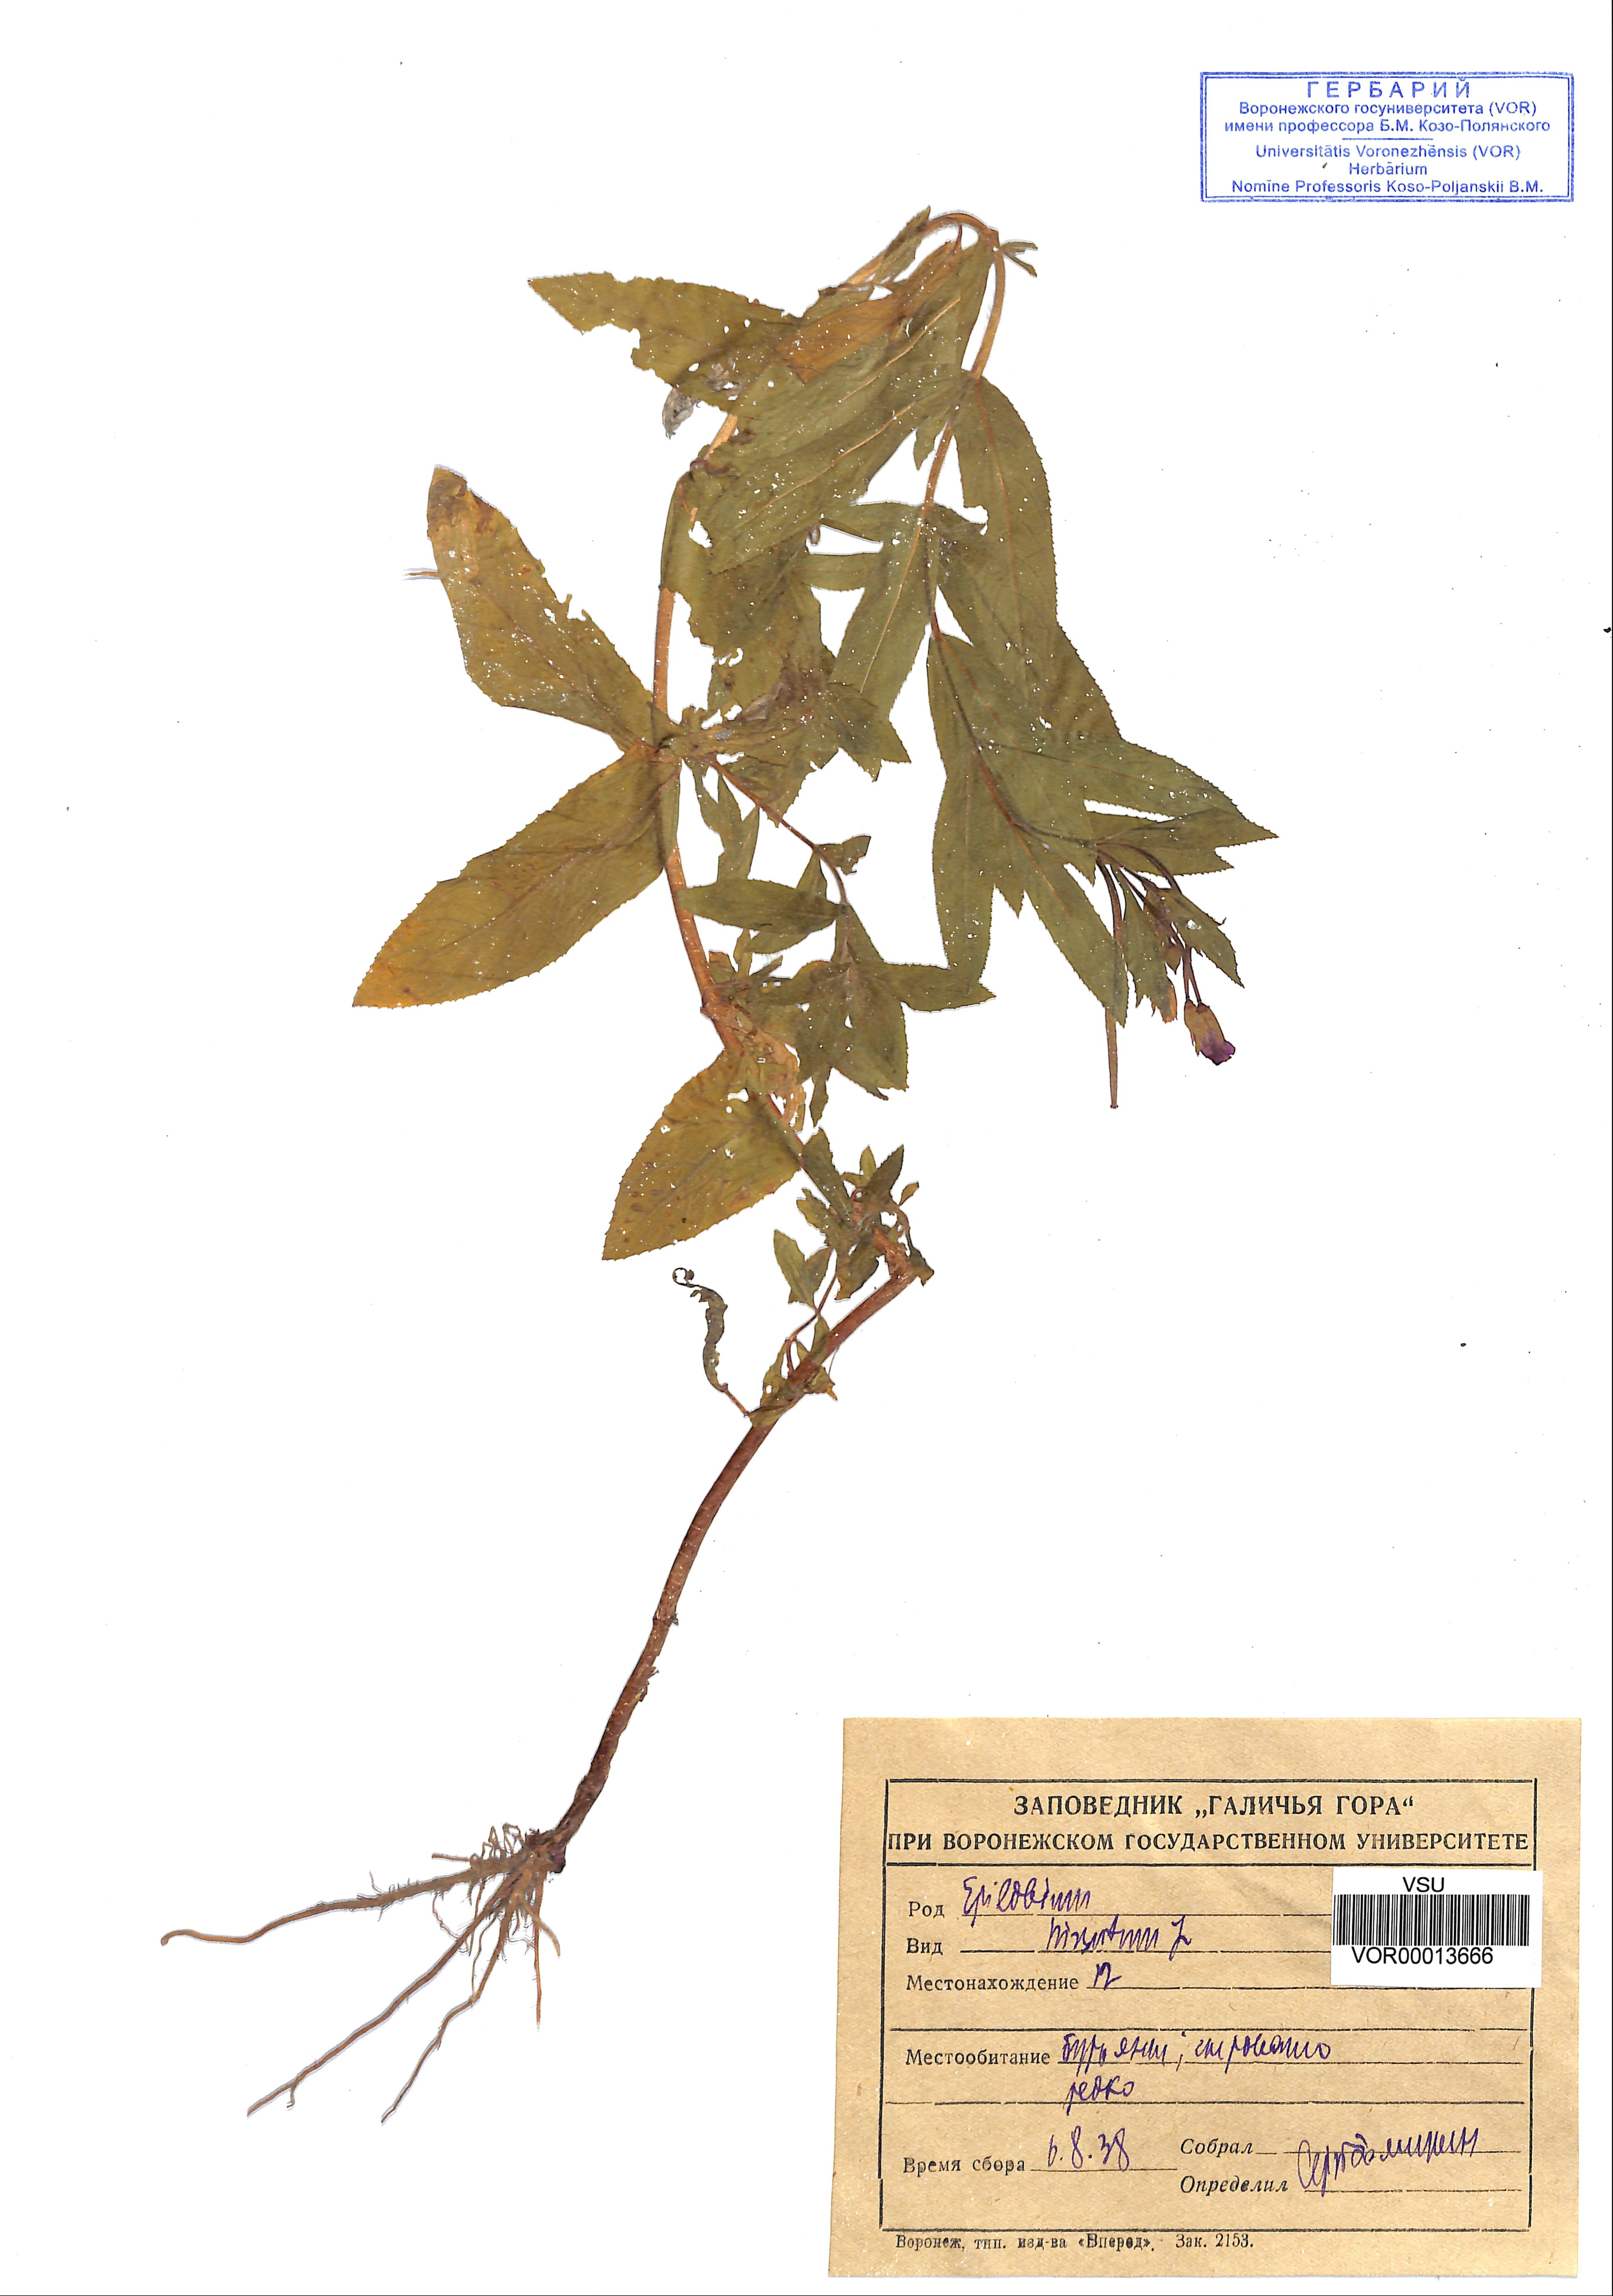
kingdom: Plantae
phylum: Tracheophyta
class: Magnoliopsida
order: Myrtales
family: Onagraceae
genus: Epilobium
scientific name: Epilobium hirsutum
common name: Great willowherb
